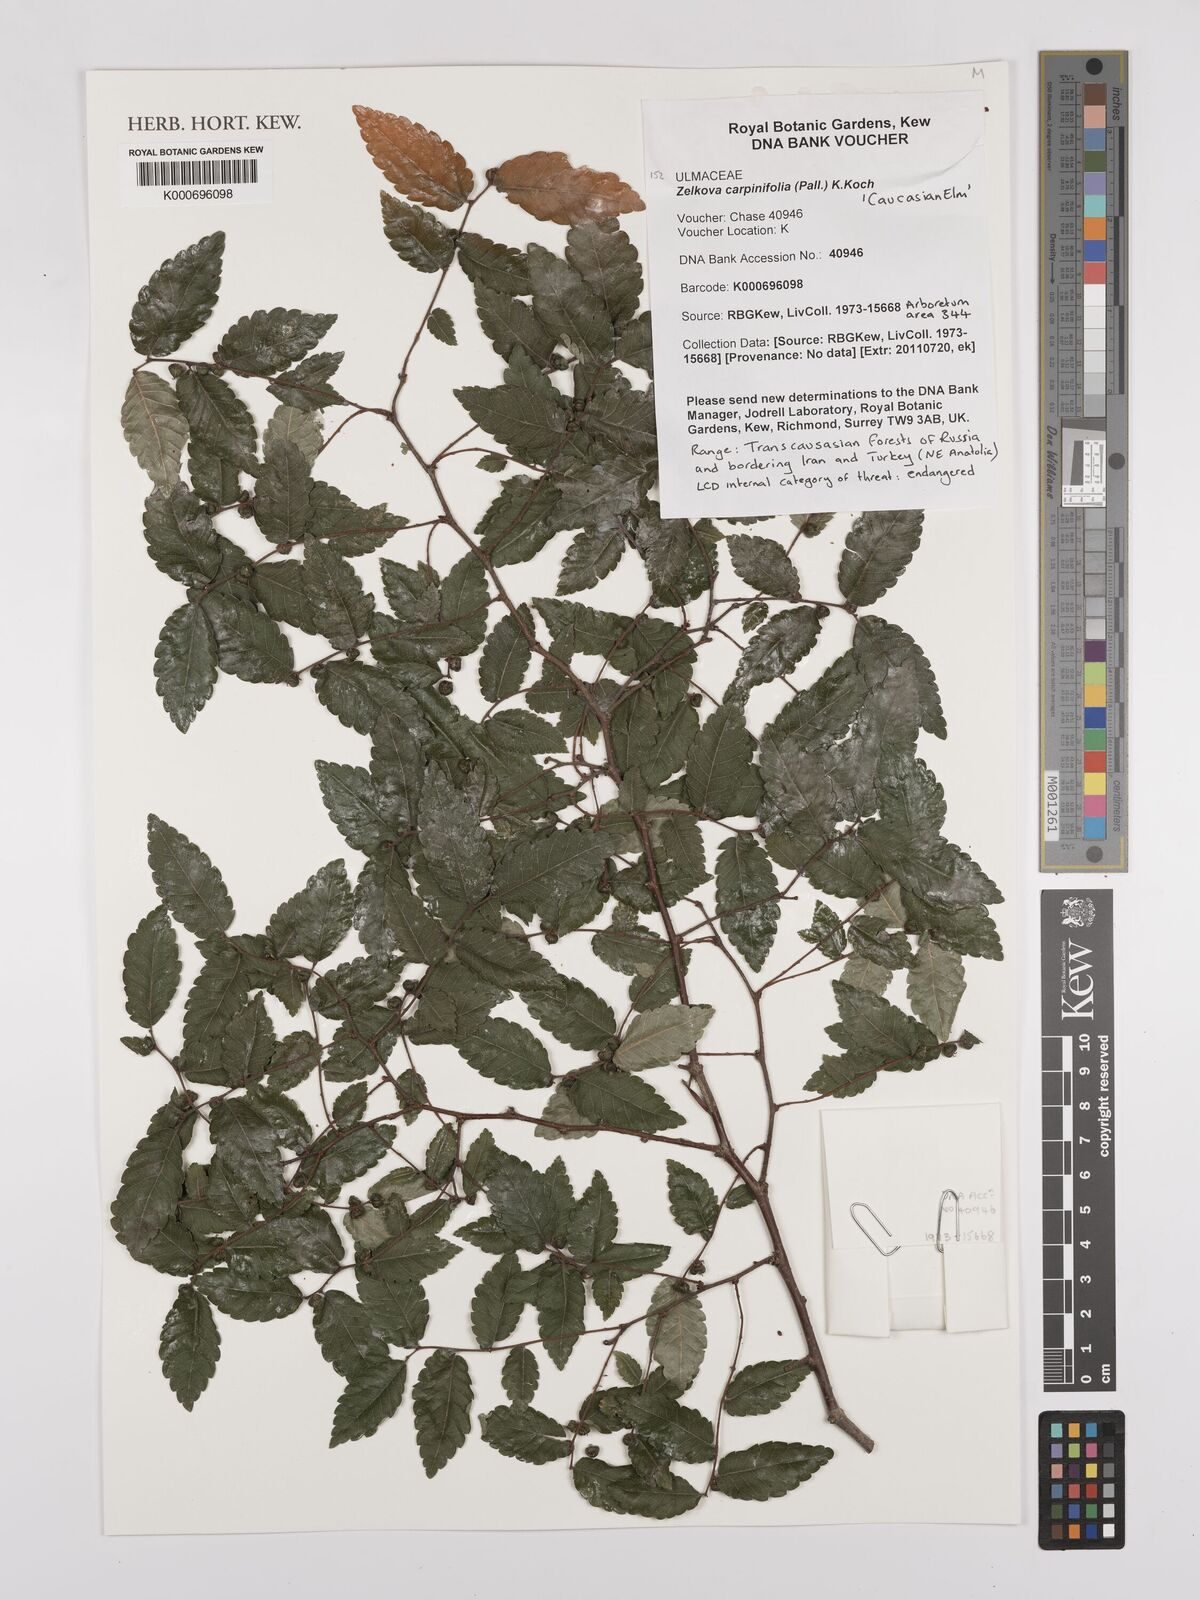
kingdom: Plantae
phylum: Tracheophyta
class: Magnoliopsida
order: Rosales
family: Ulmaceae
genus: Zelkova
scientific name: Zelkova carpinifolia
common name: Caucasian elm
